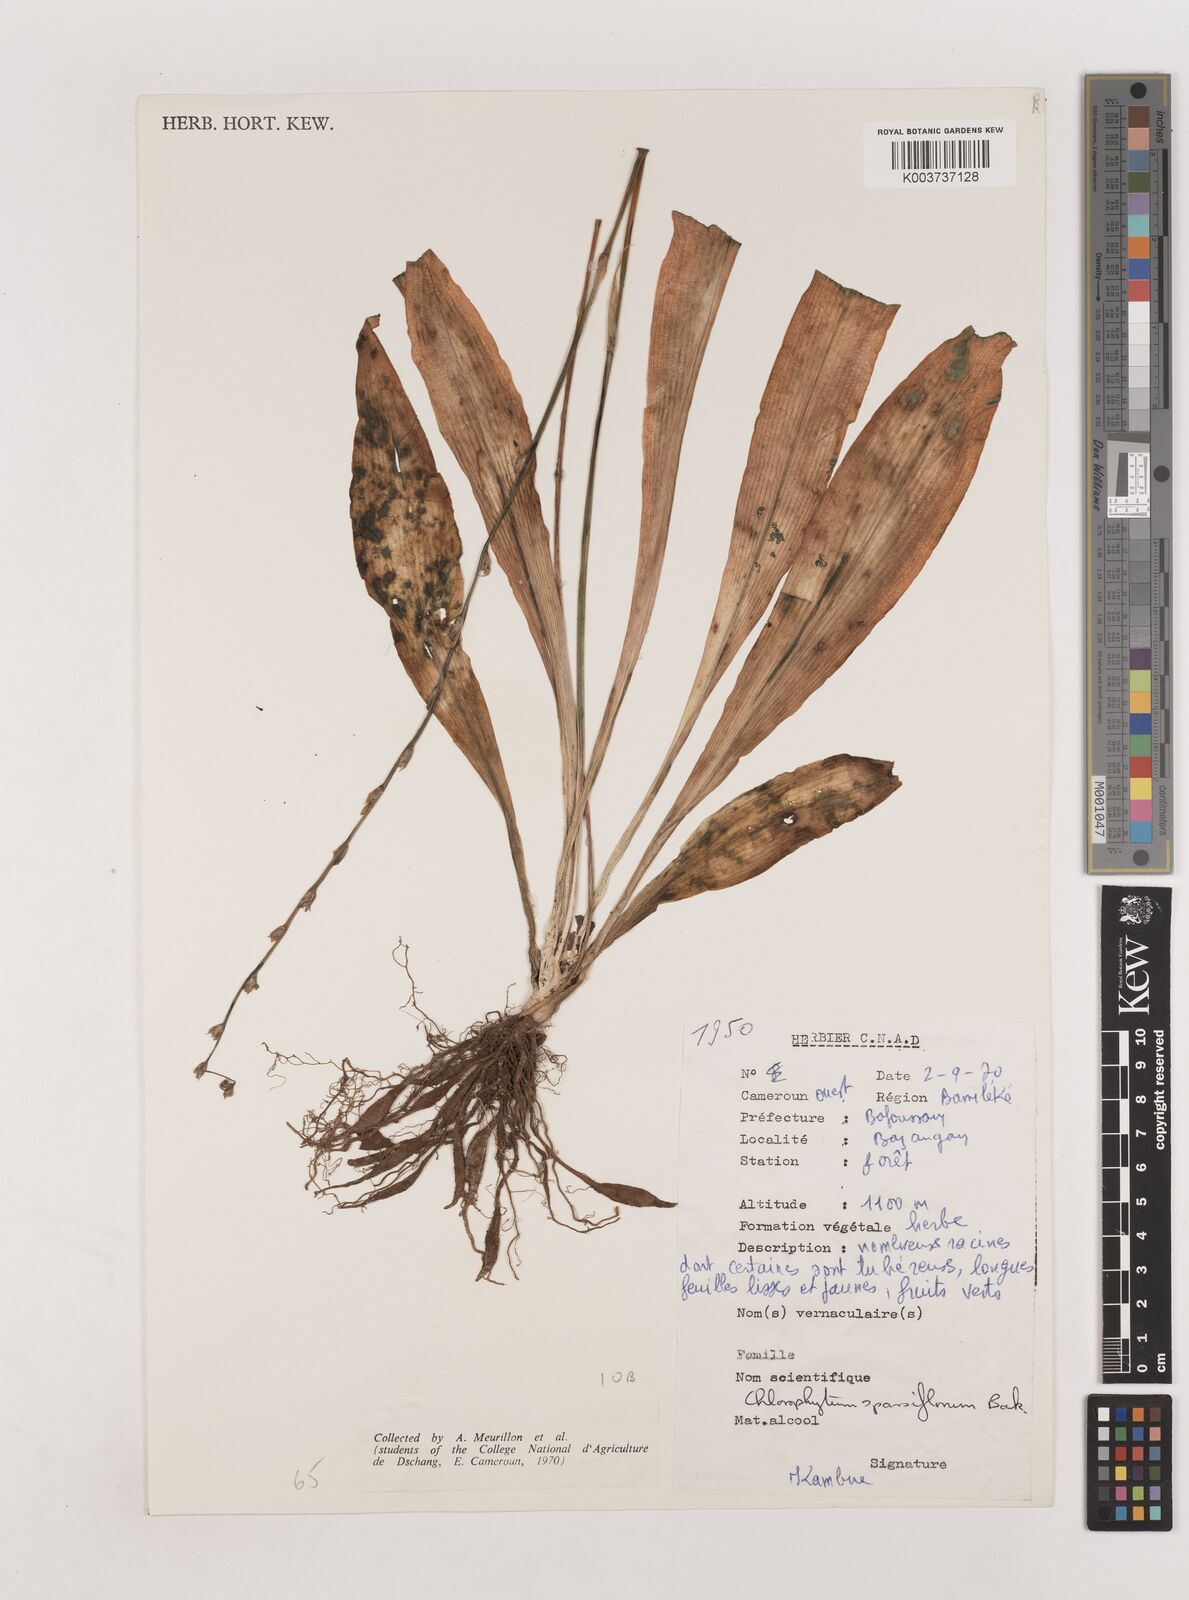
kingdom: Plantae
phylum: Tracheophyta
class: Liliopsida
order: Asparagales
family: Asparagaceae
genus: Chlorophytum
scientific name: Chlorophytum sparsiflorum
